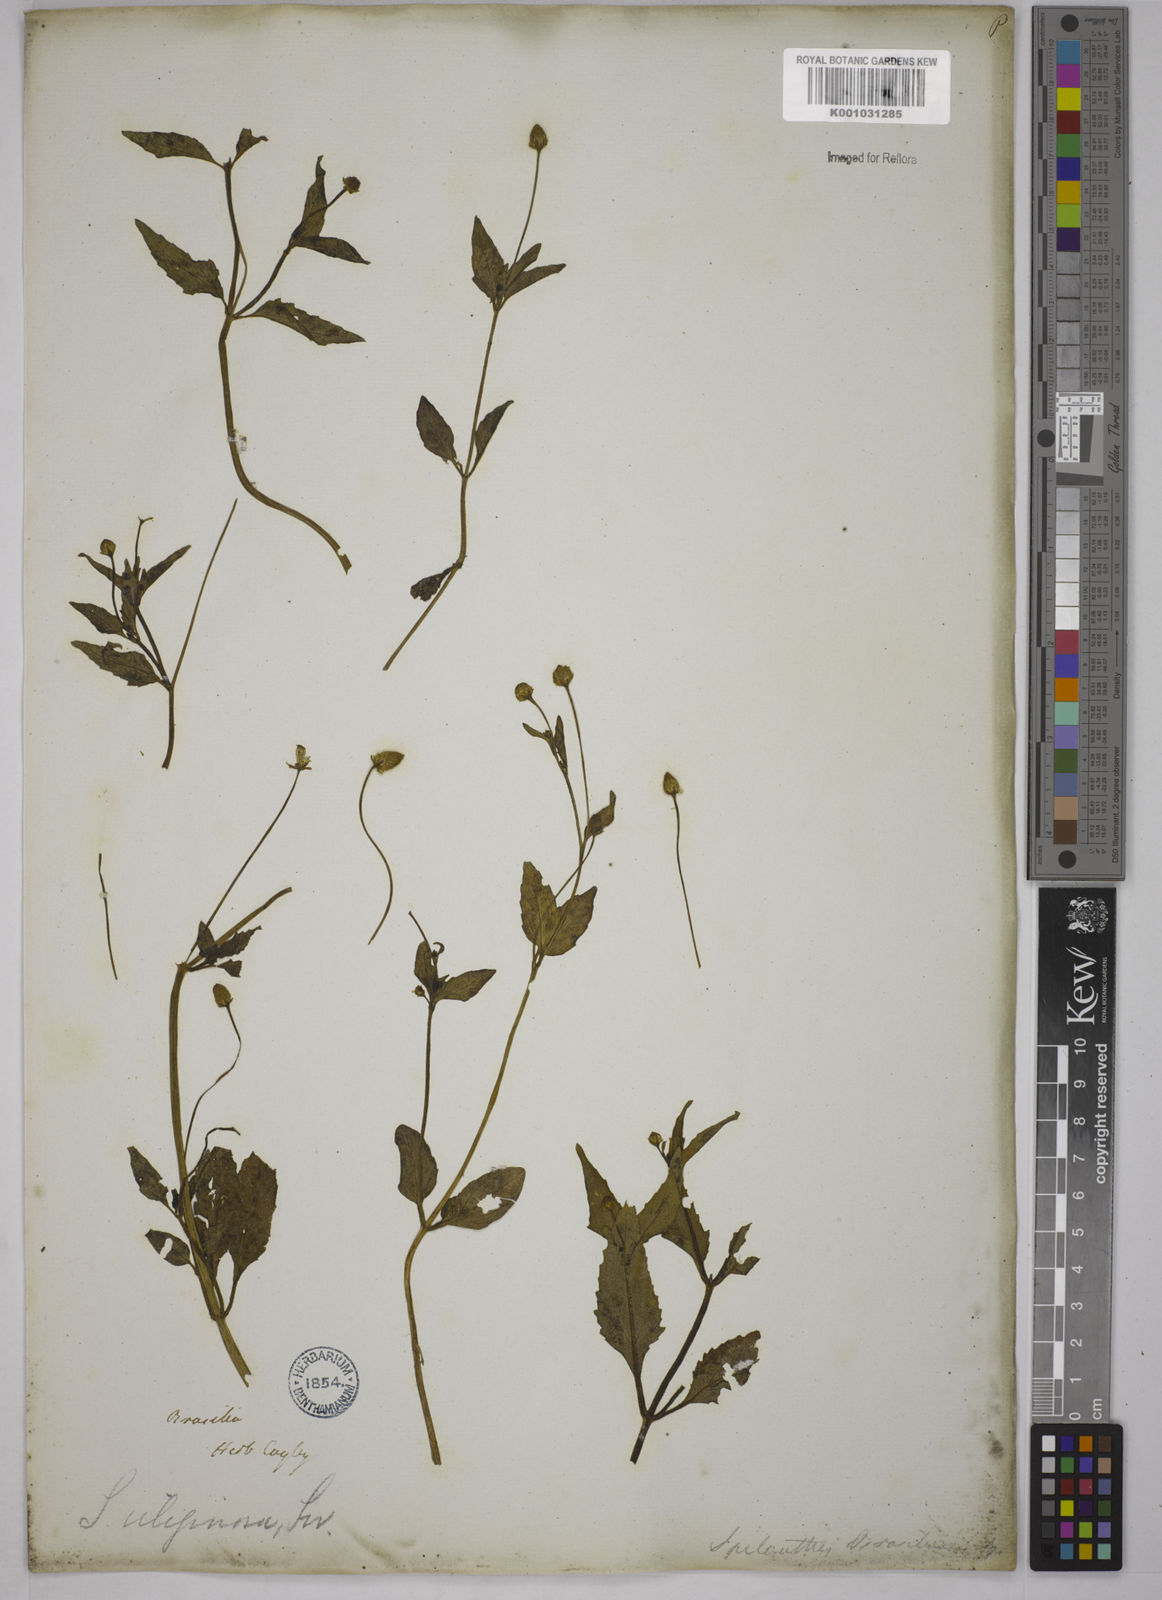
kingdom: Plantae
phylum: Tracheophyta
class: Magnoliopsida
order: Asterales
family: Asteraceae
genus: Acmella
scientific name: Acmella uliginosa
